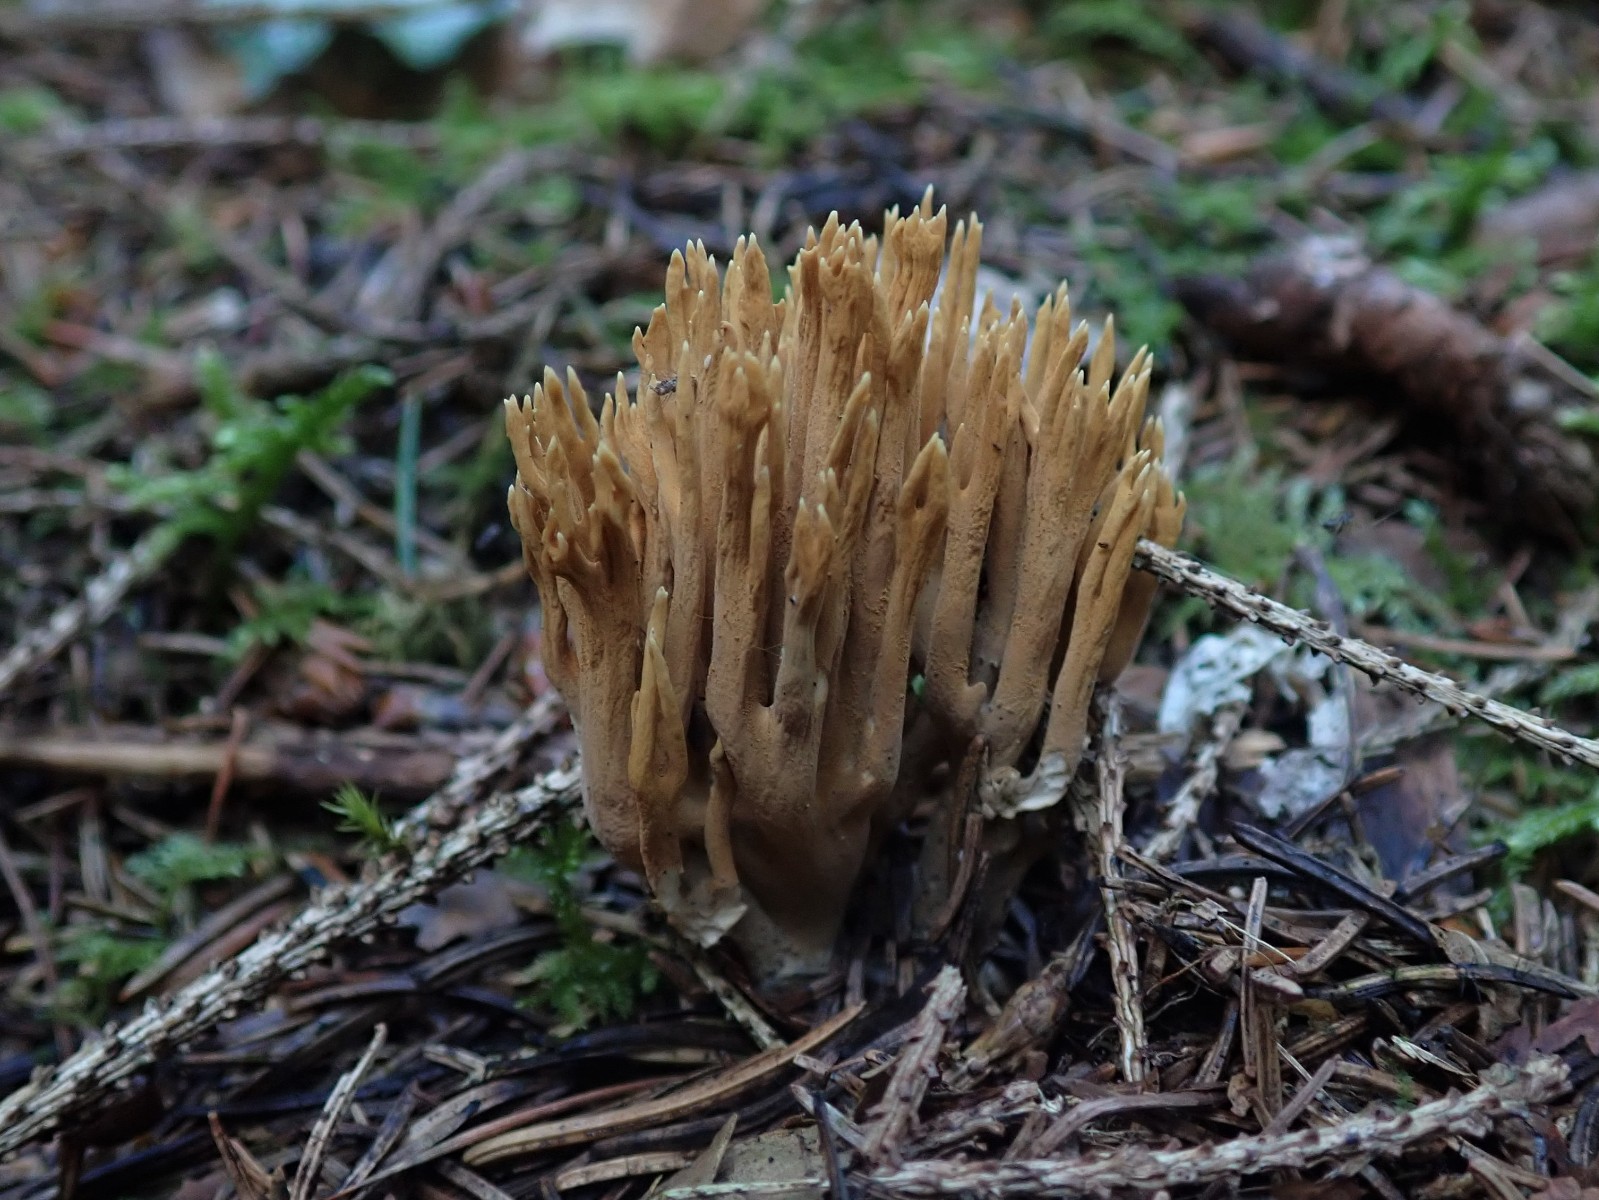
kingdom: Fungi
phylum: Basidiomycota
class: Agaricomycetes
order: Gomphales
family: Gomphaceae
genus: Phaeoclavulina
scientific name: Phaeoclavulina eumorpha
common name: gran-koralsvamp
